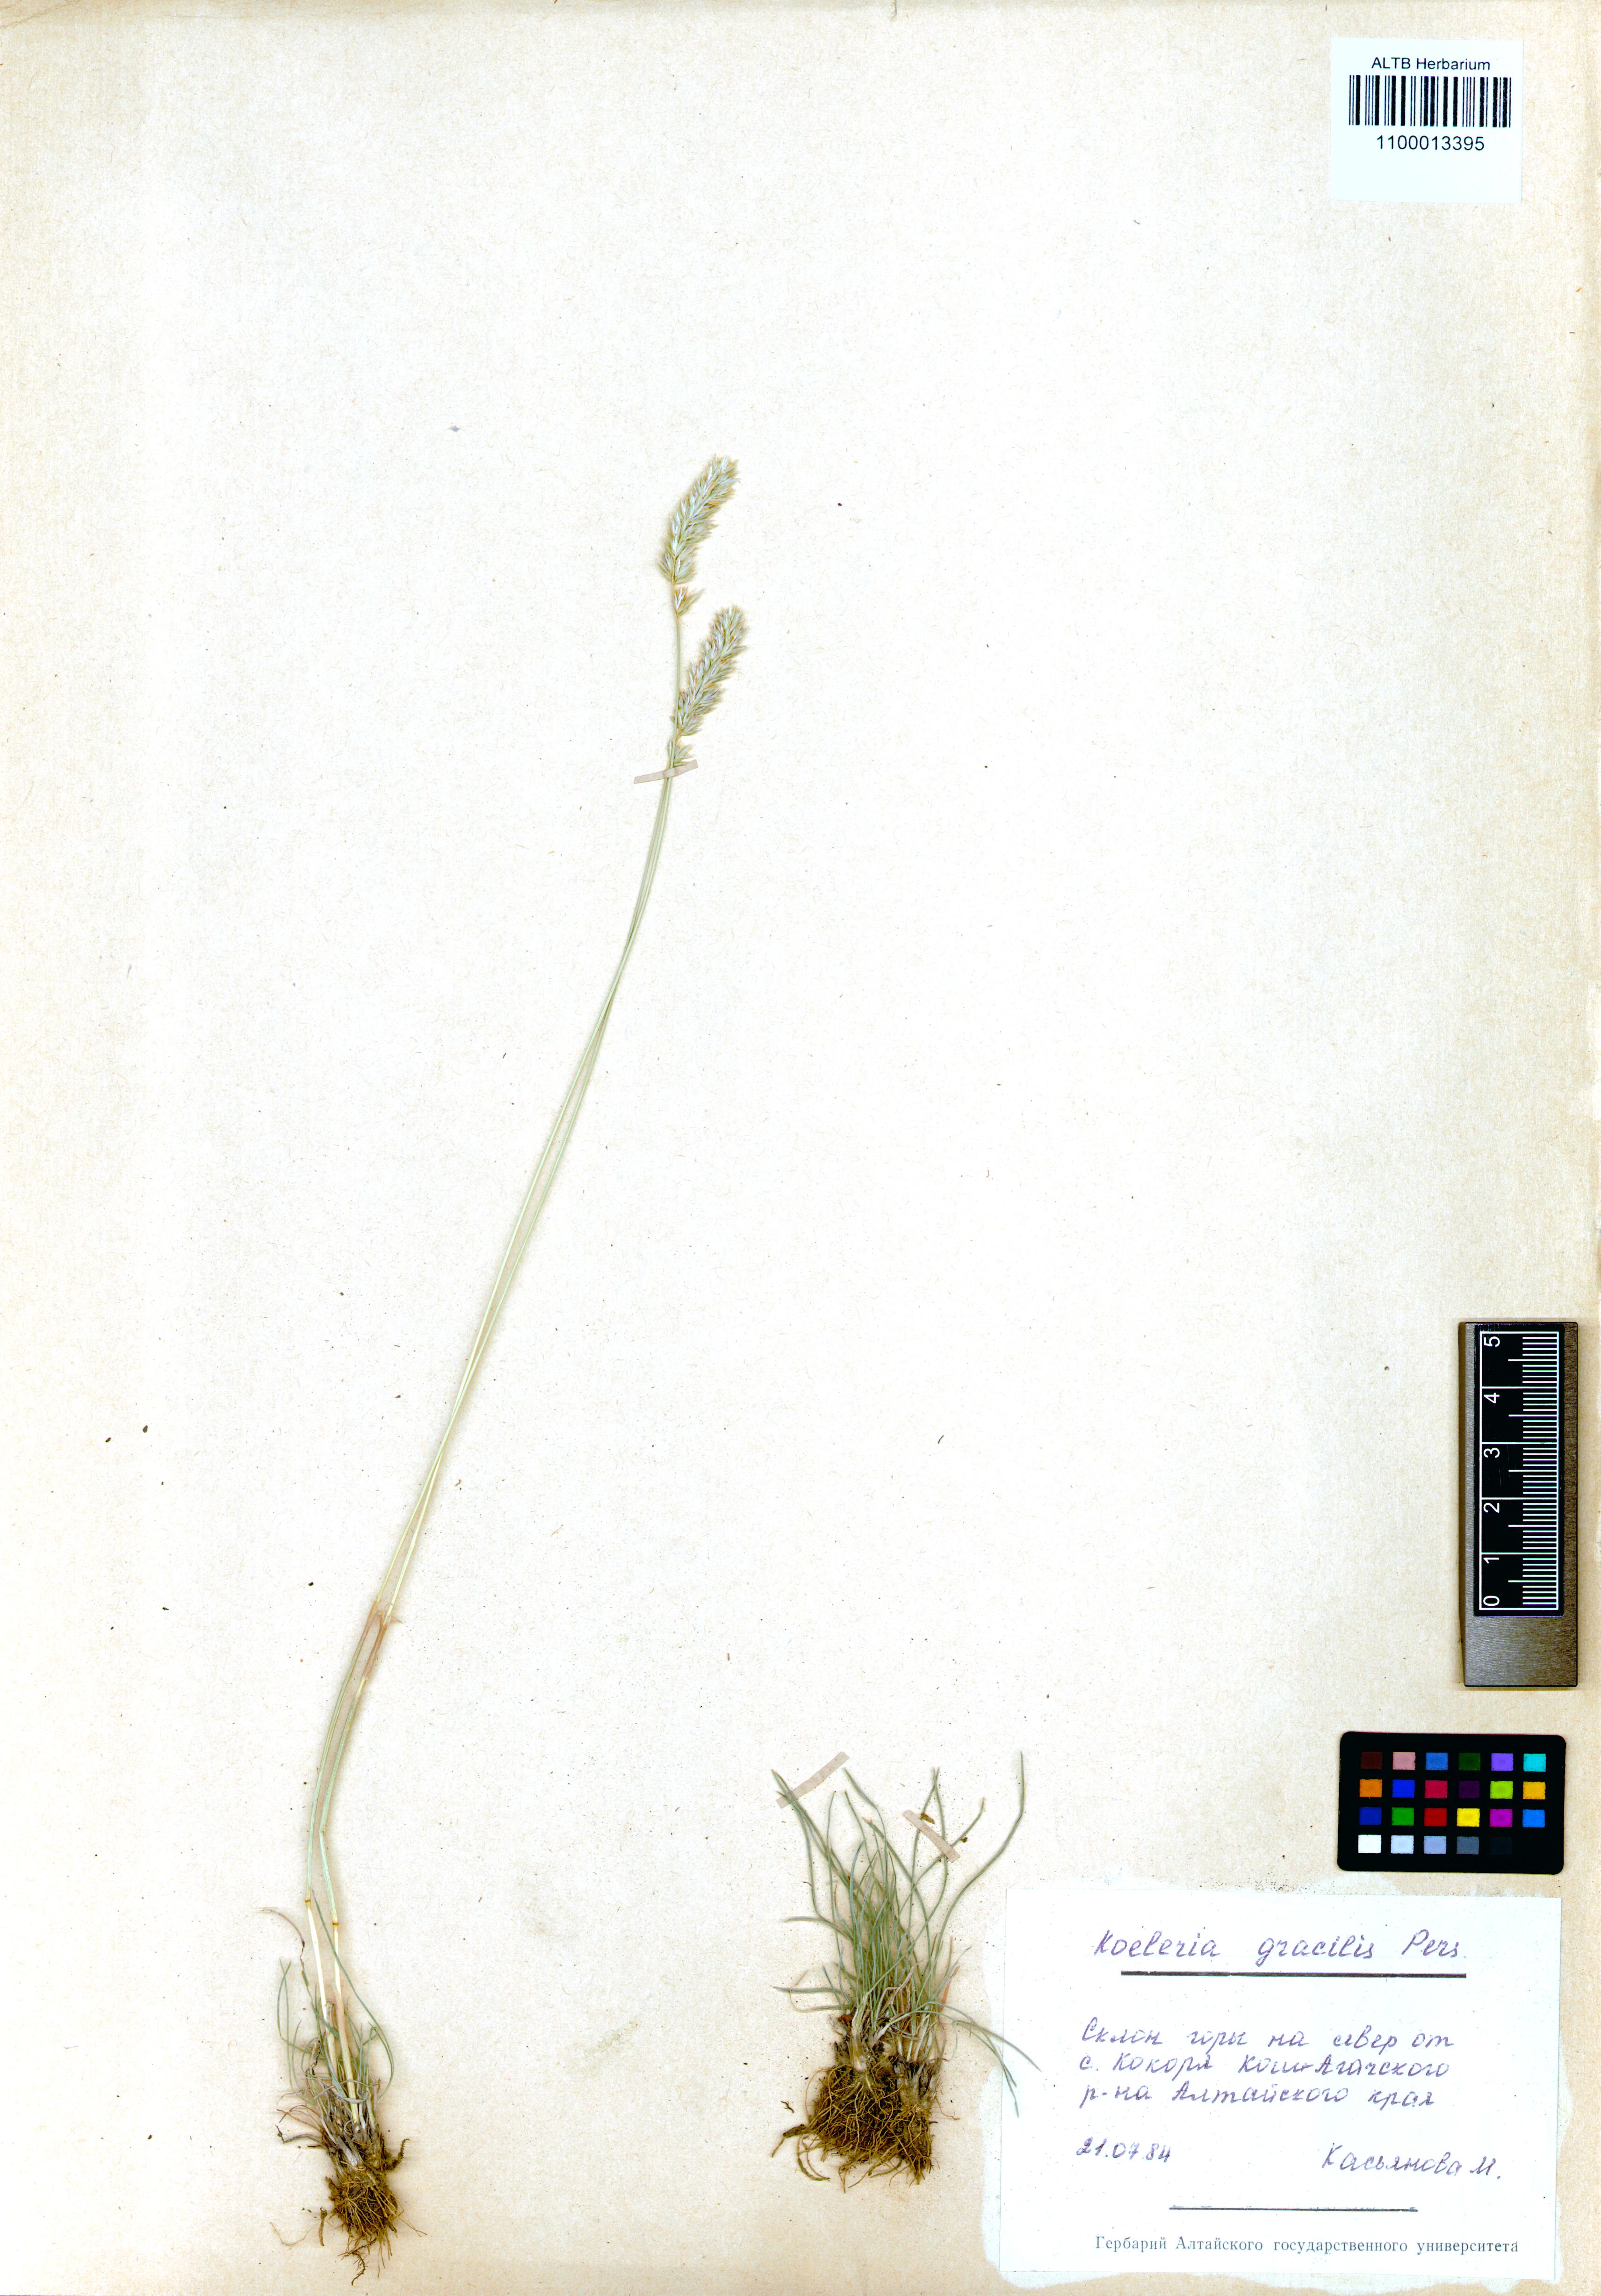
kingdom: Plantae
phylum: Tracheophyta
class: Liliopsida
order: Poales
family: Poaceae
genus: Koeleria
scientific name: Koeleria macrantha
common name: Crested hair-grass
